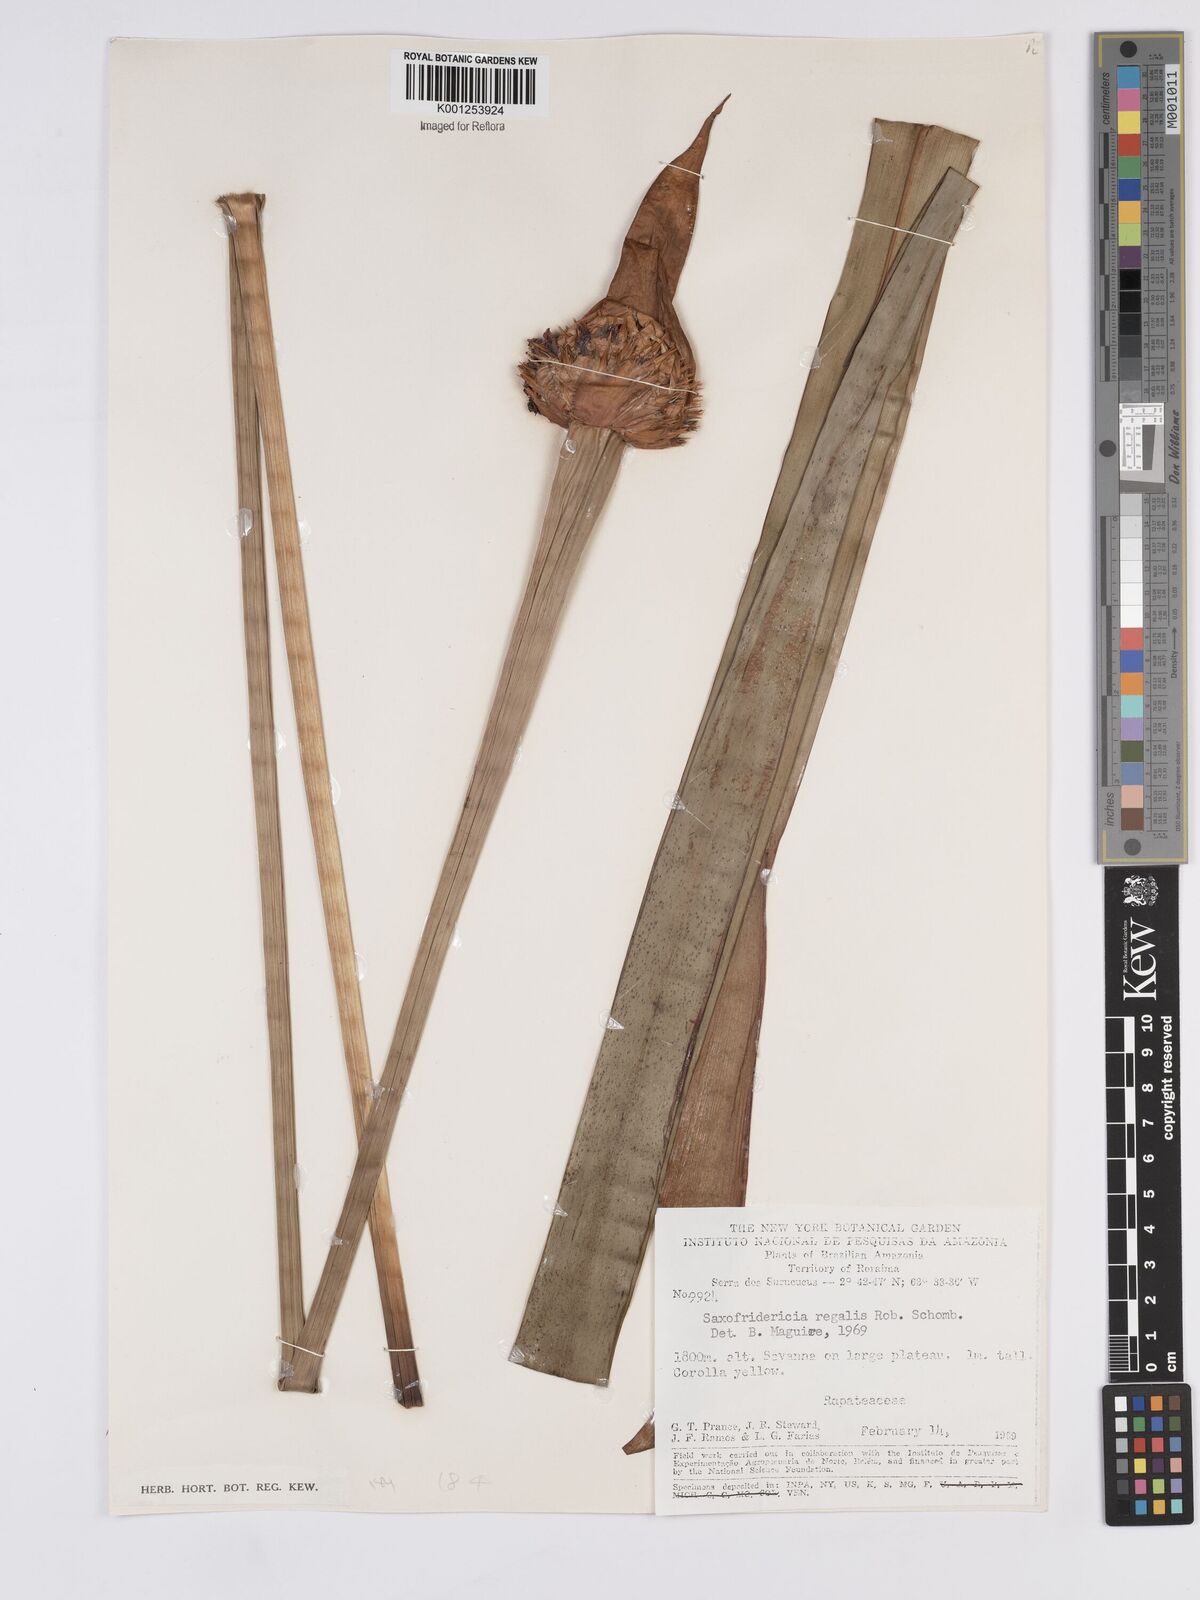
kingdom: Plantae
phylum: Tracheophyta
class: Liliopsida
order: Poales
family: Rapateaceae
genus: Saxofridericia
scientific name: Saxofridericia regalis
